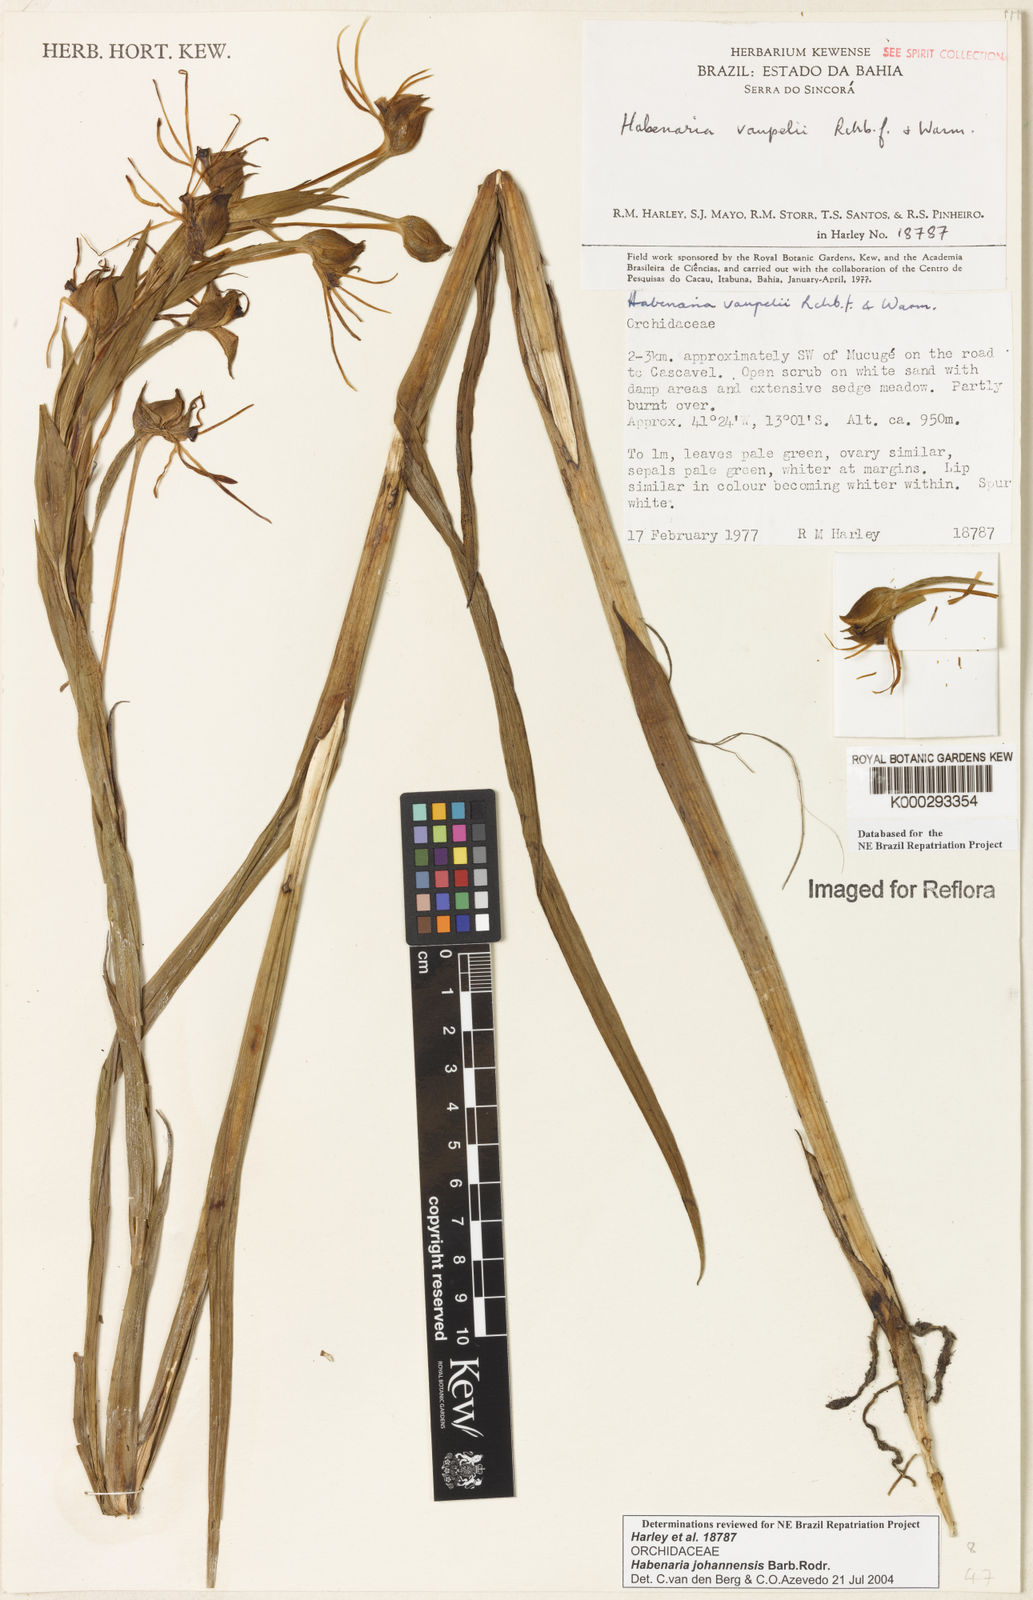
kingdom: Plantae
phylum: Tracheophyta
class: Liliopsida
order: Asparagales
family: Orchidaceae
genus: Habenaria
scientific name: Habenaria johannensis
